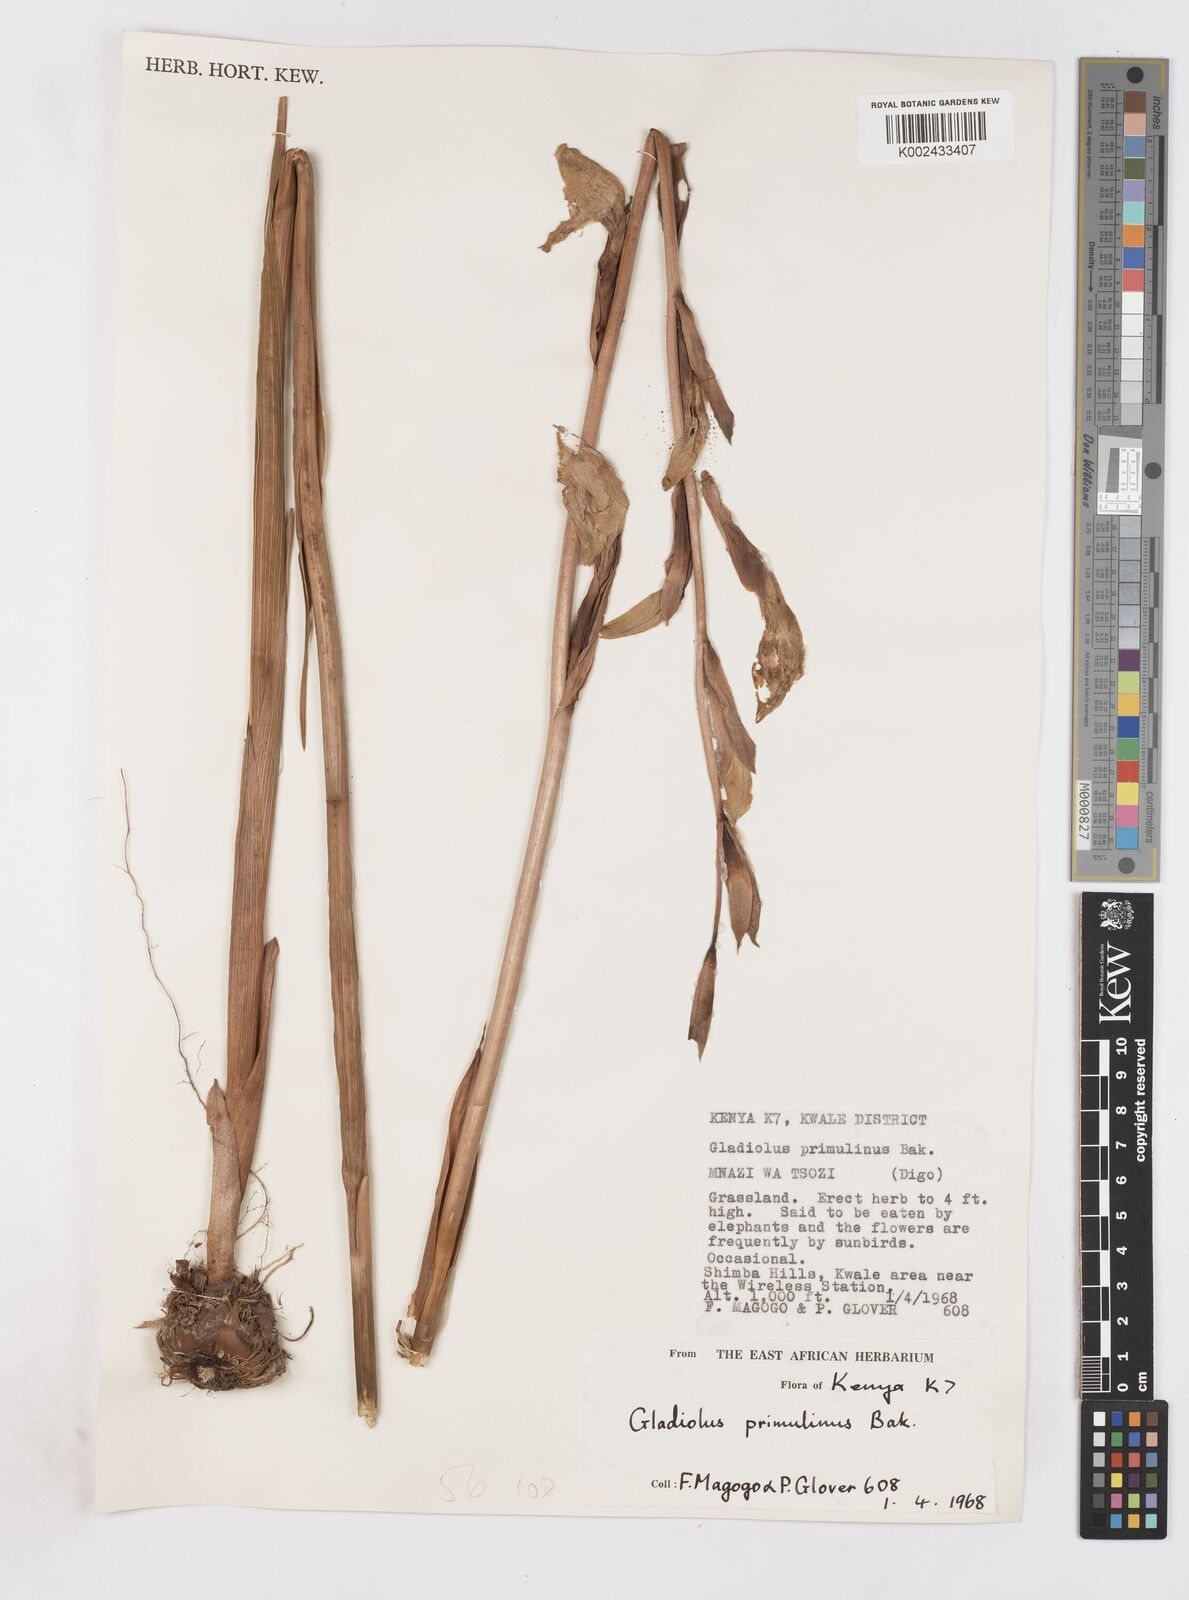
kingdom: Plantae
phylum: Tracheophyta
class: Liliopsida
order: Asparagales
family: Iridaceae
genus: Gladiolus
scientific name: Gladiolus dalenii
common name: Cornflag
